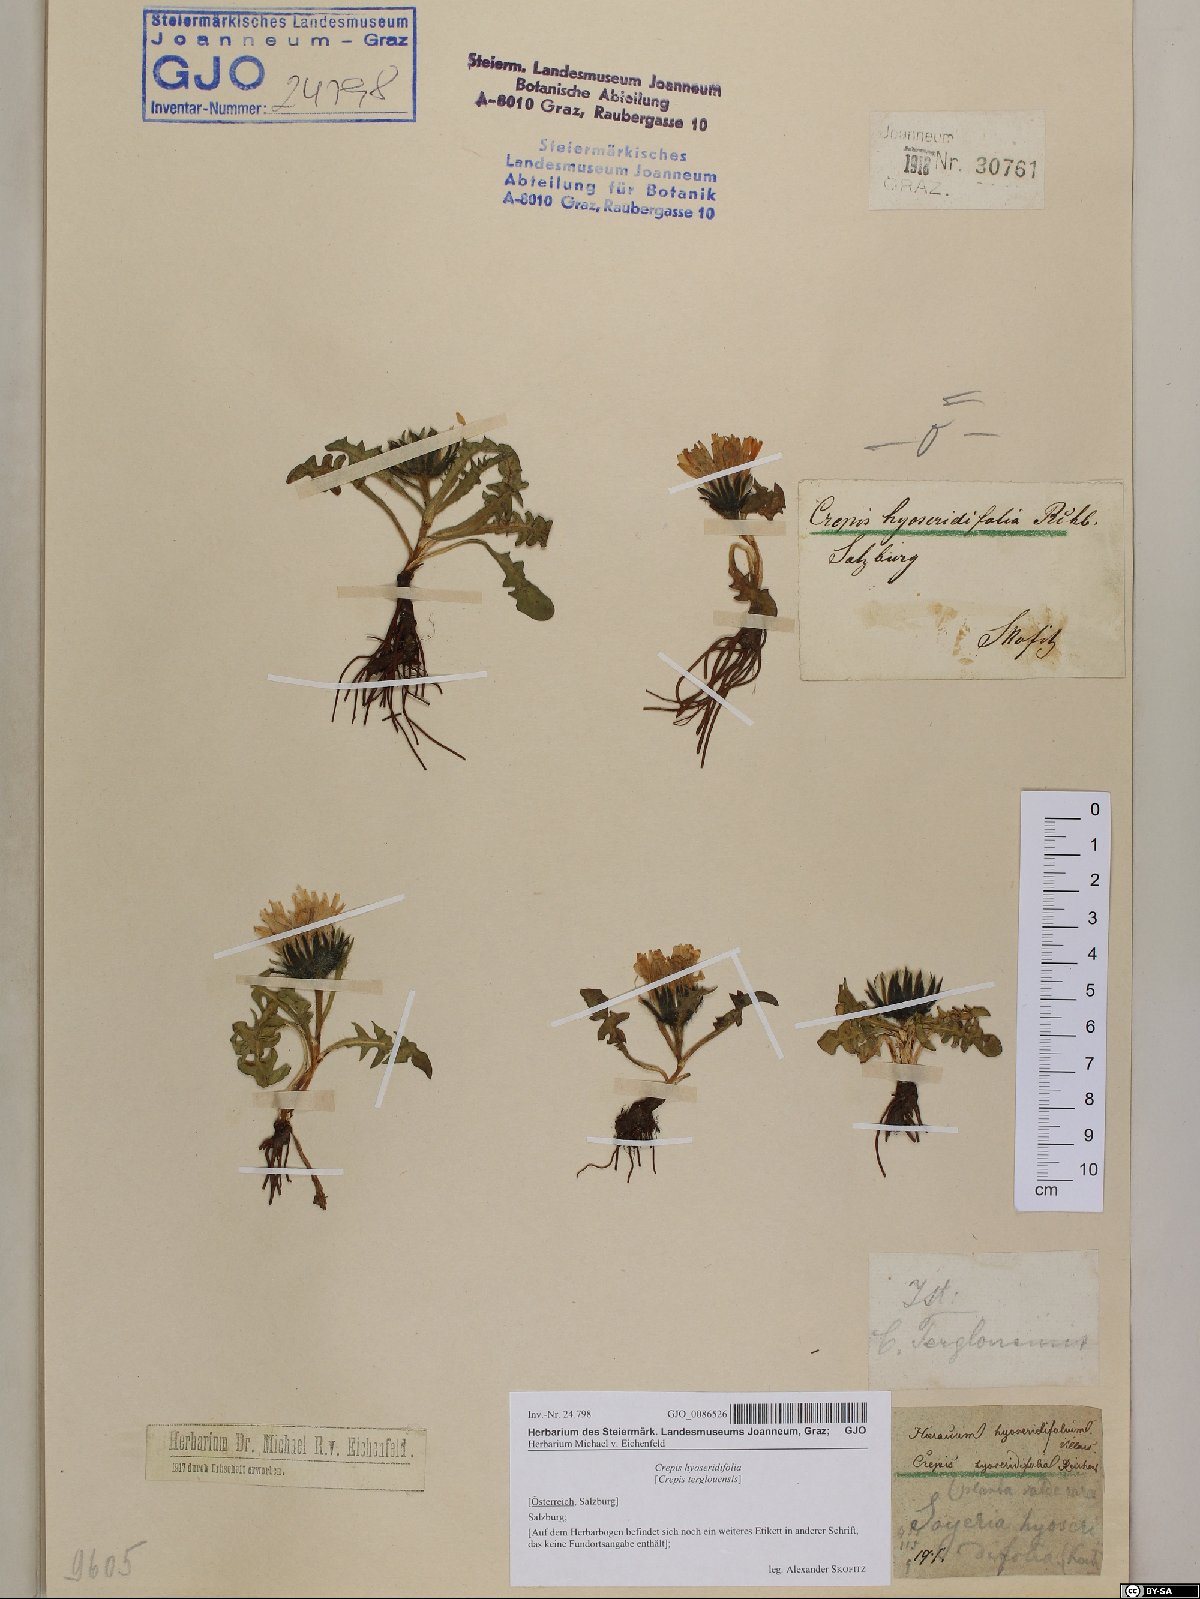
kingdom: Plantae
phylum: Tracheophyta
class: Magnoliopsida
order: Asterales
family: Asteraceae
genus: Crepis
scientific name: Crepis terglouensis
